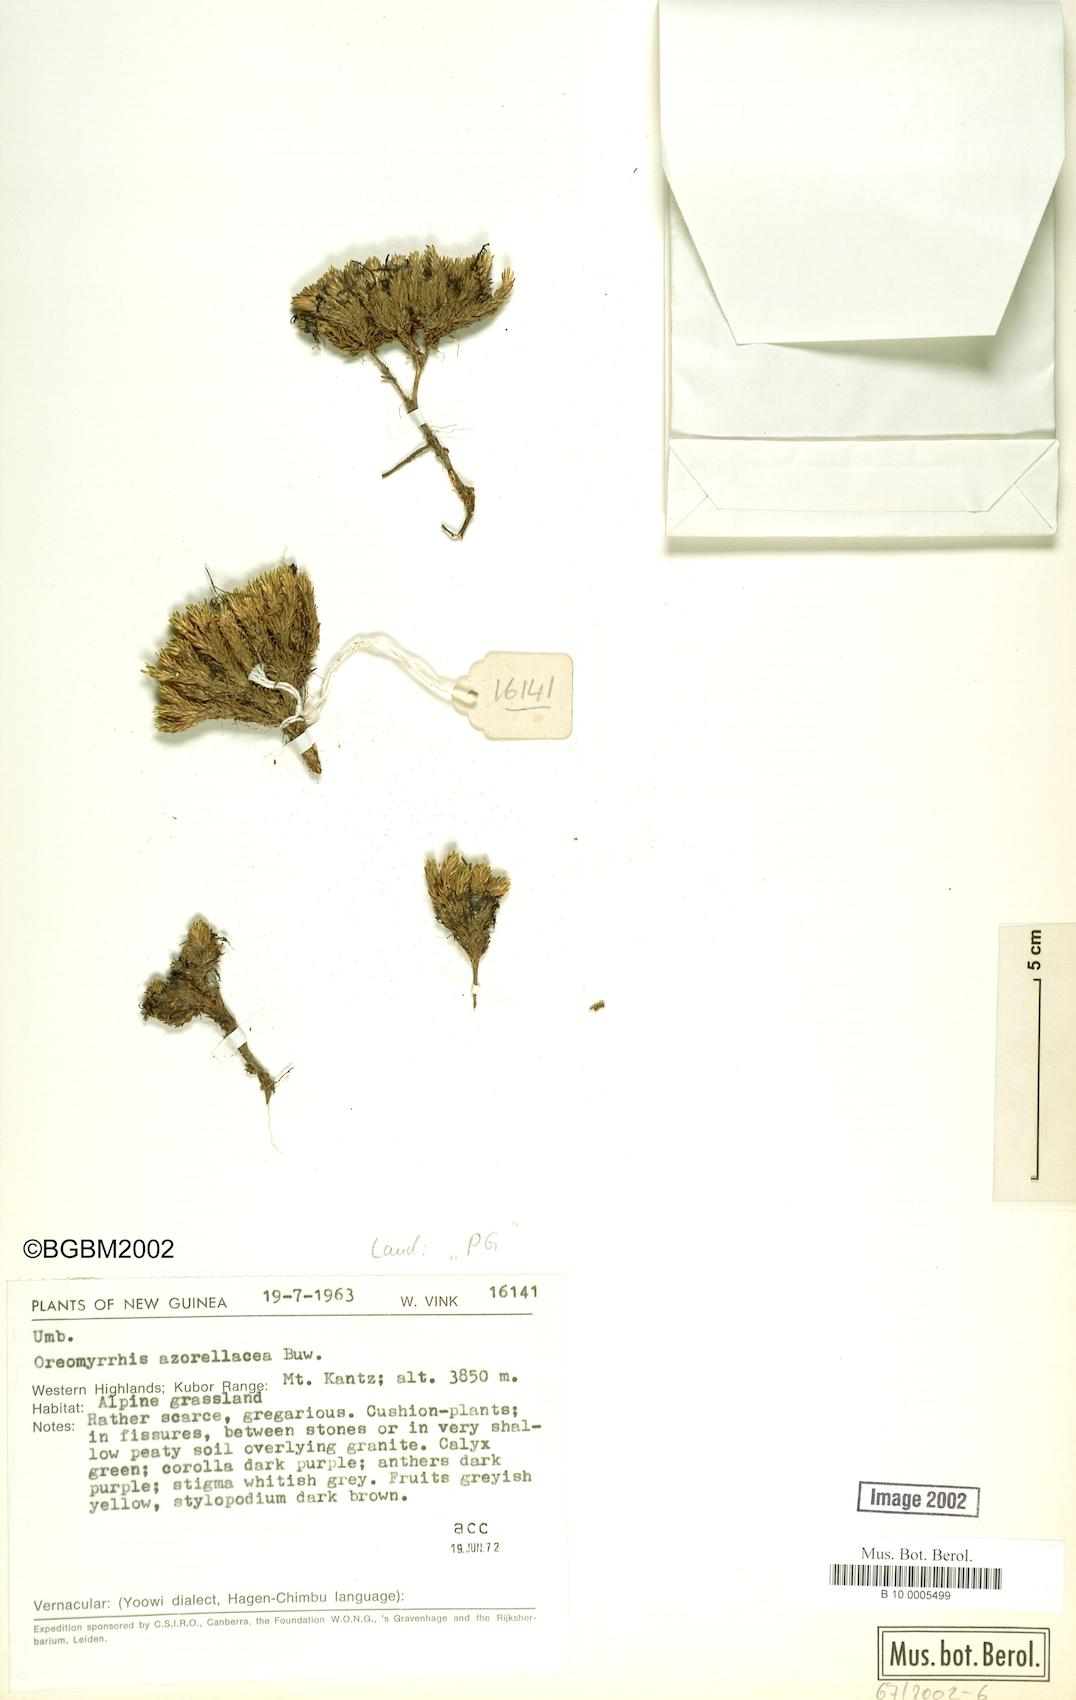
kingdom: Plantae
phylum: Tracheophyta
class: Magnoliopsida
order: Apiales
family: Apiaceae
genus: Chaerophyllum
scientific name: Chaerophyllum azorellaceum
